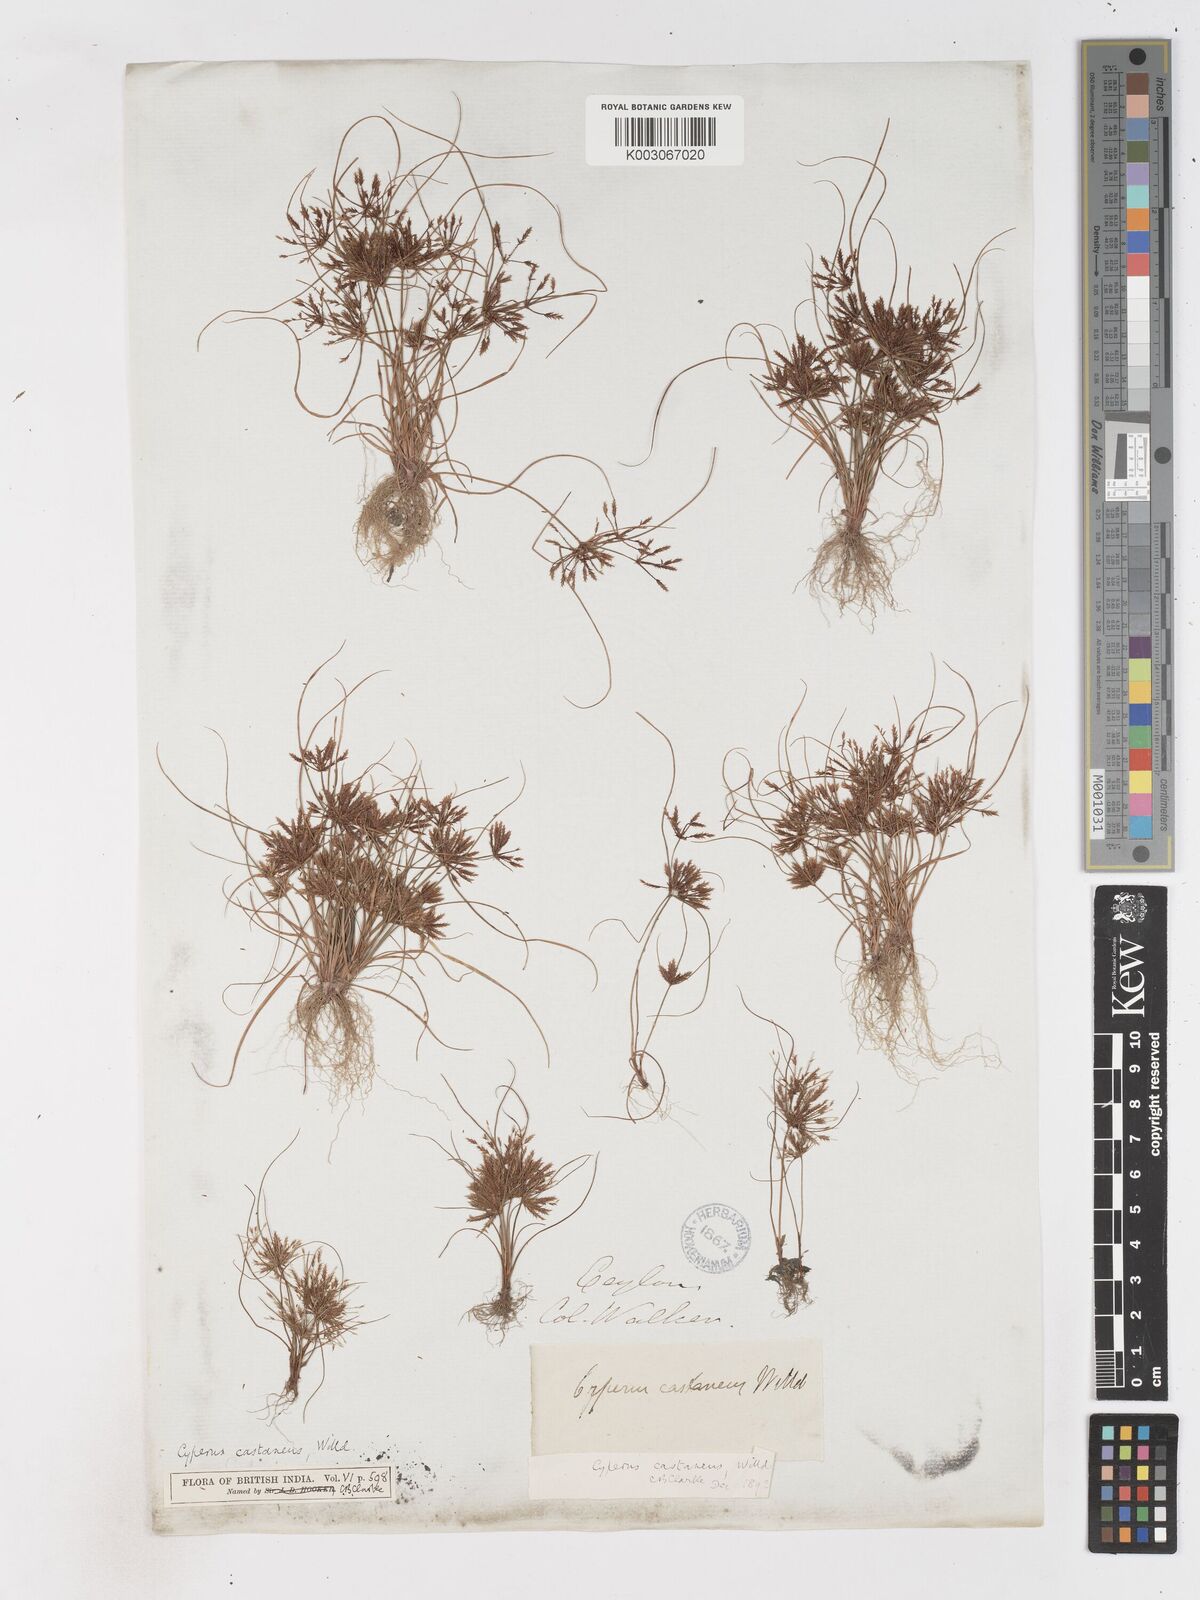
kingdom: Plantae
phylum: Tracheophyta
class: Liliopsida
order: Poales
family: Cyperaceae
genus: Cyperus
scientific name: Cyperus castaneus
